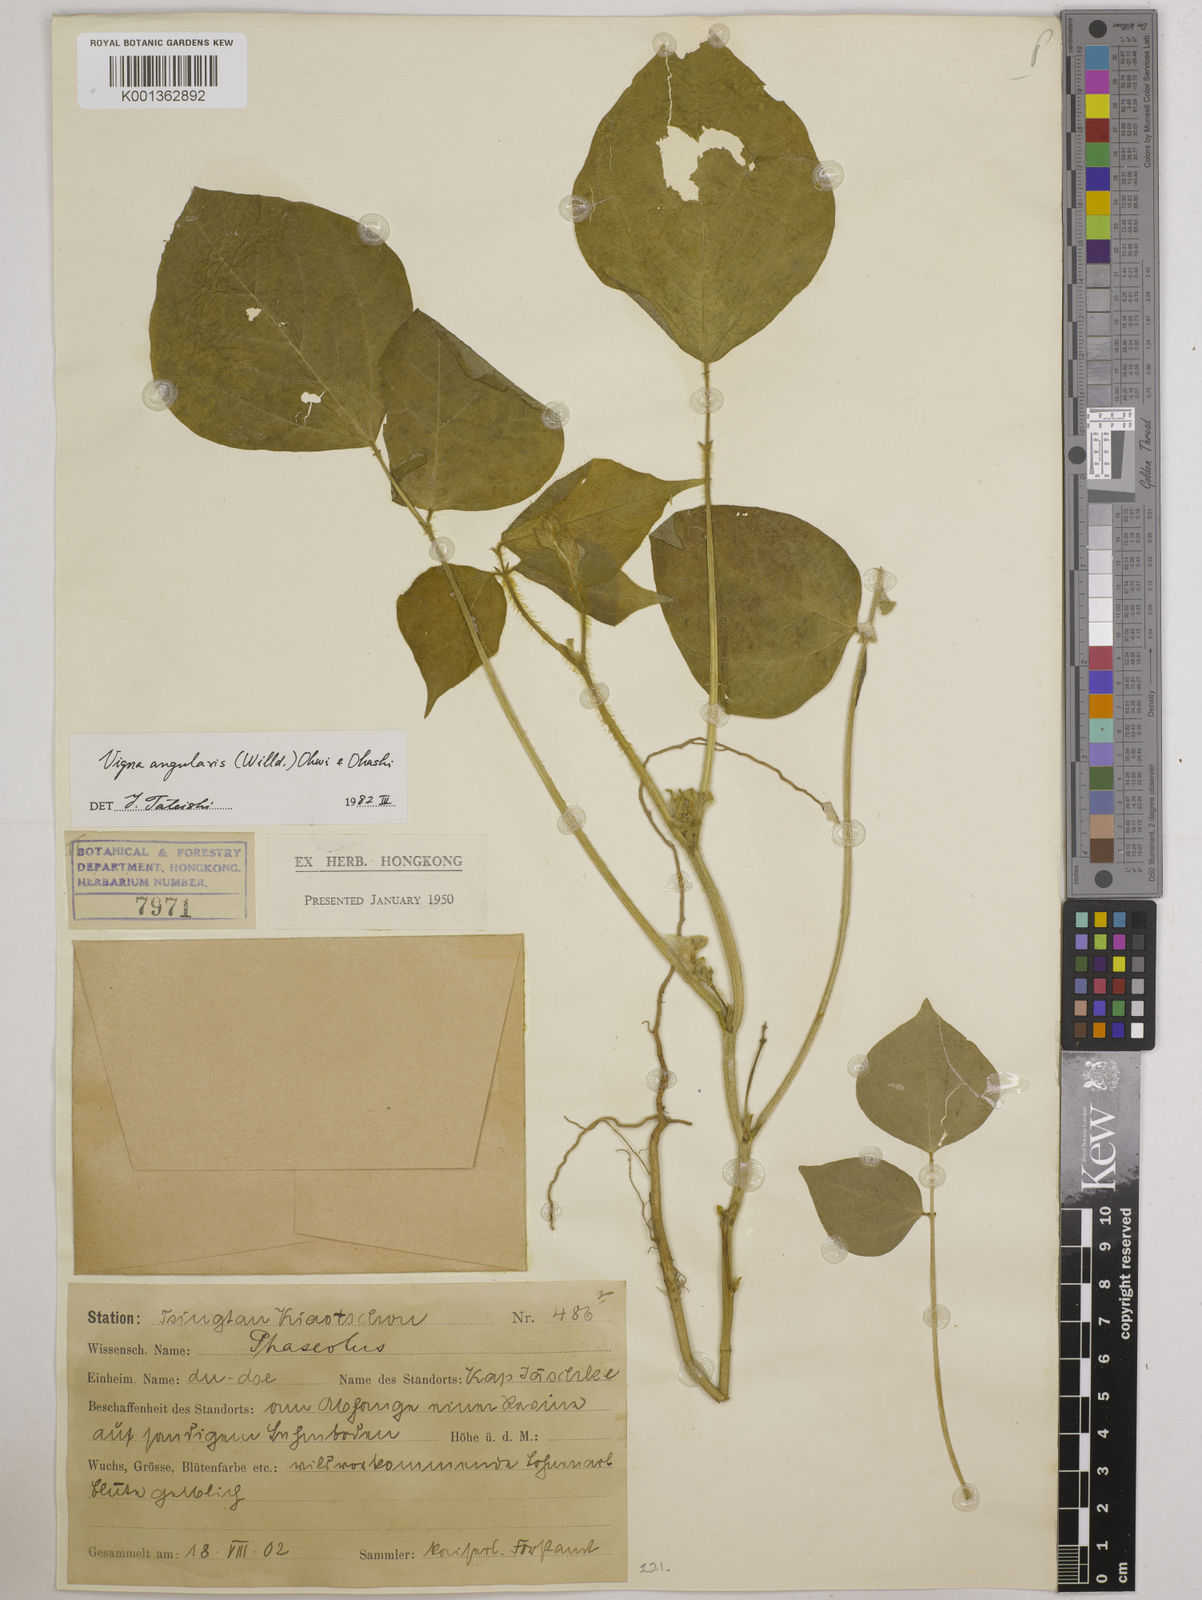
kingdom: Plantae
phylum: Tracheophyta
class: Magnoliopsida
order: Fabales
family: Fabaceae
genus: Vigna
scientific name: Vigna angularis
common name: Adzuki bean
